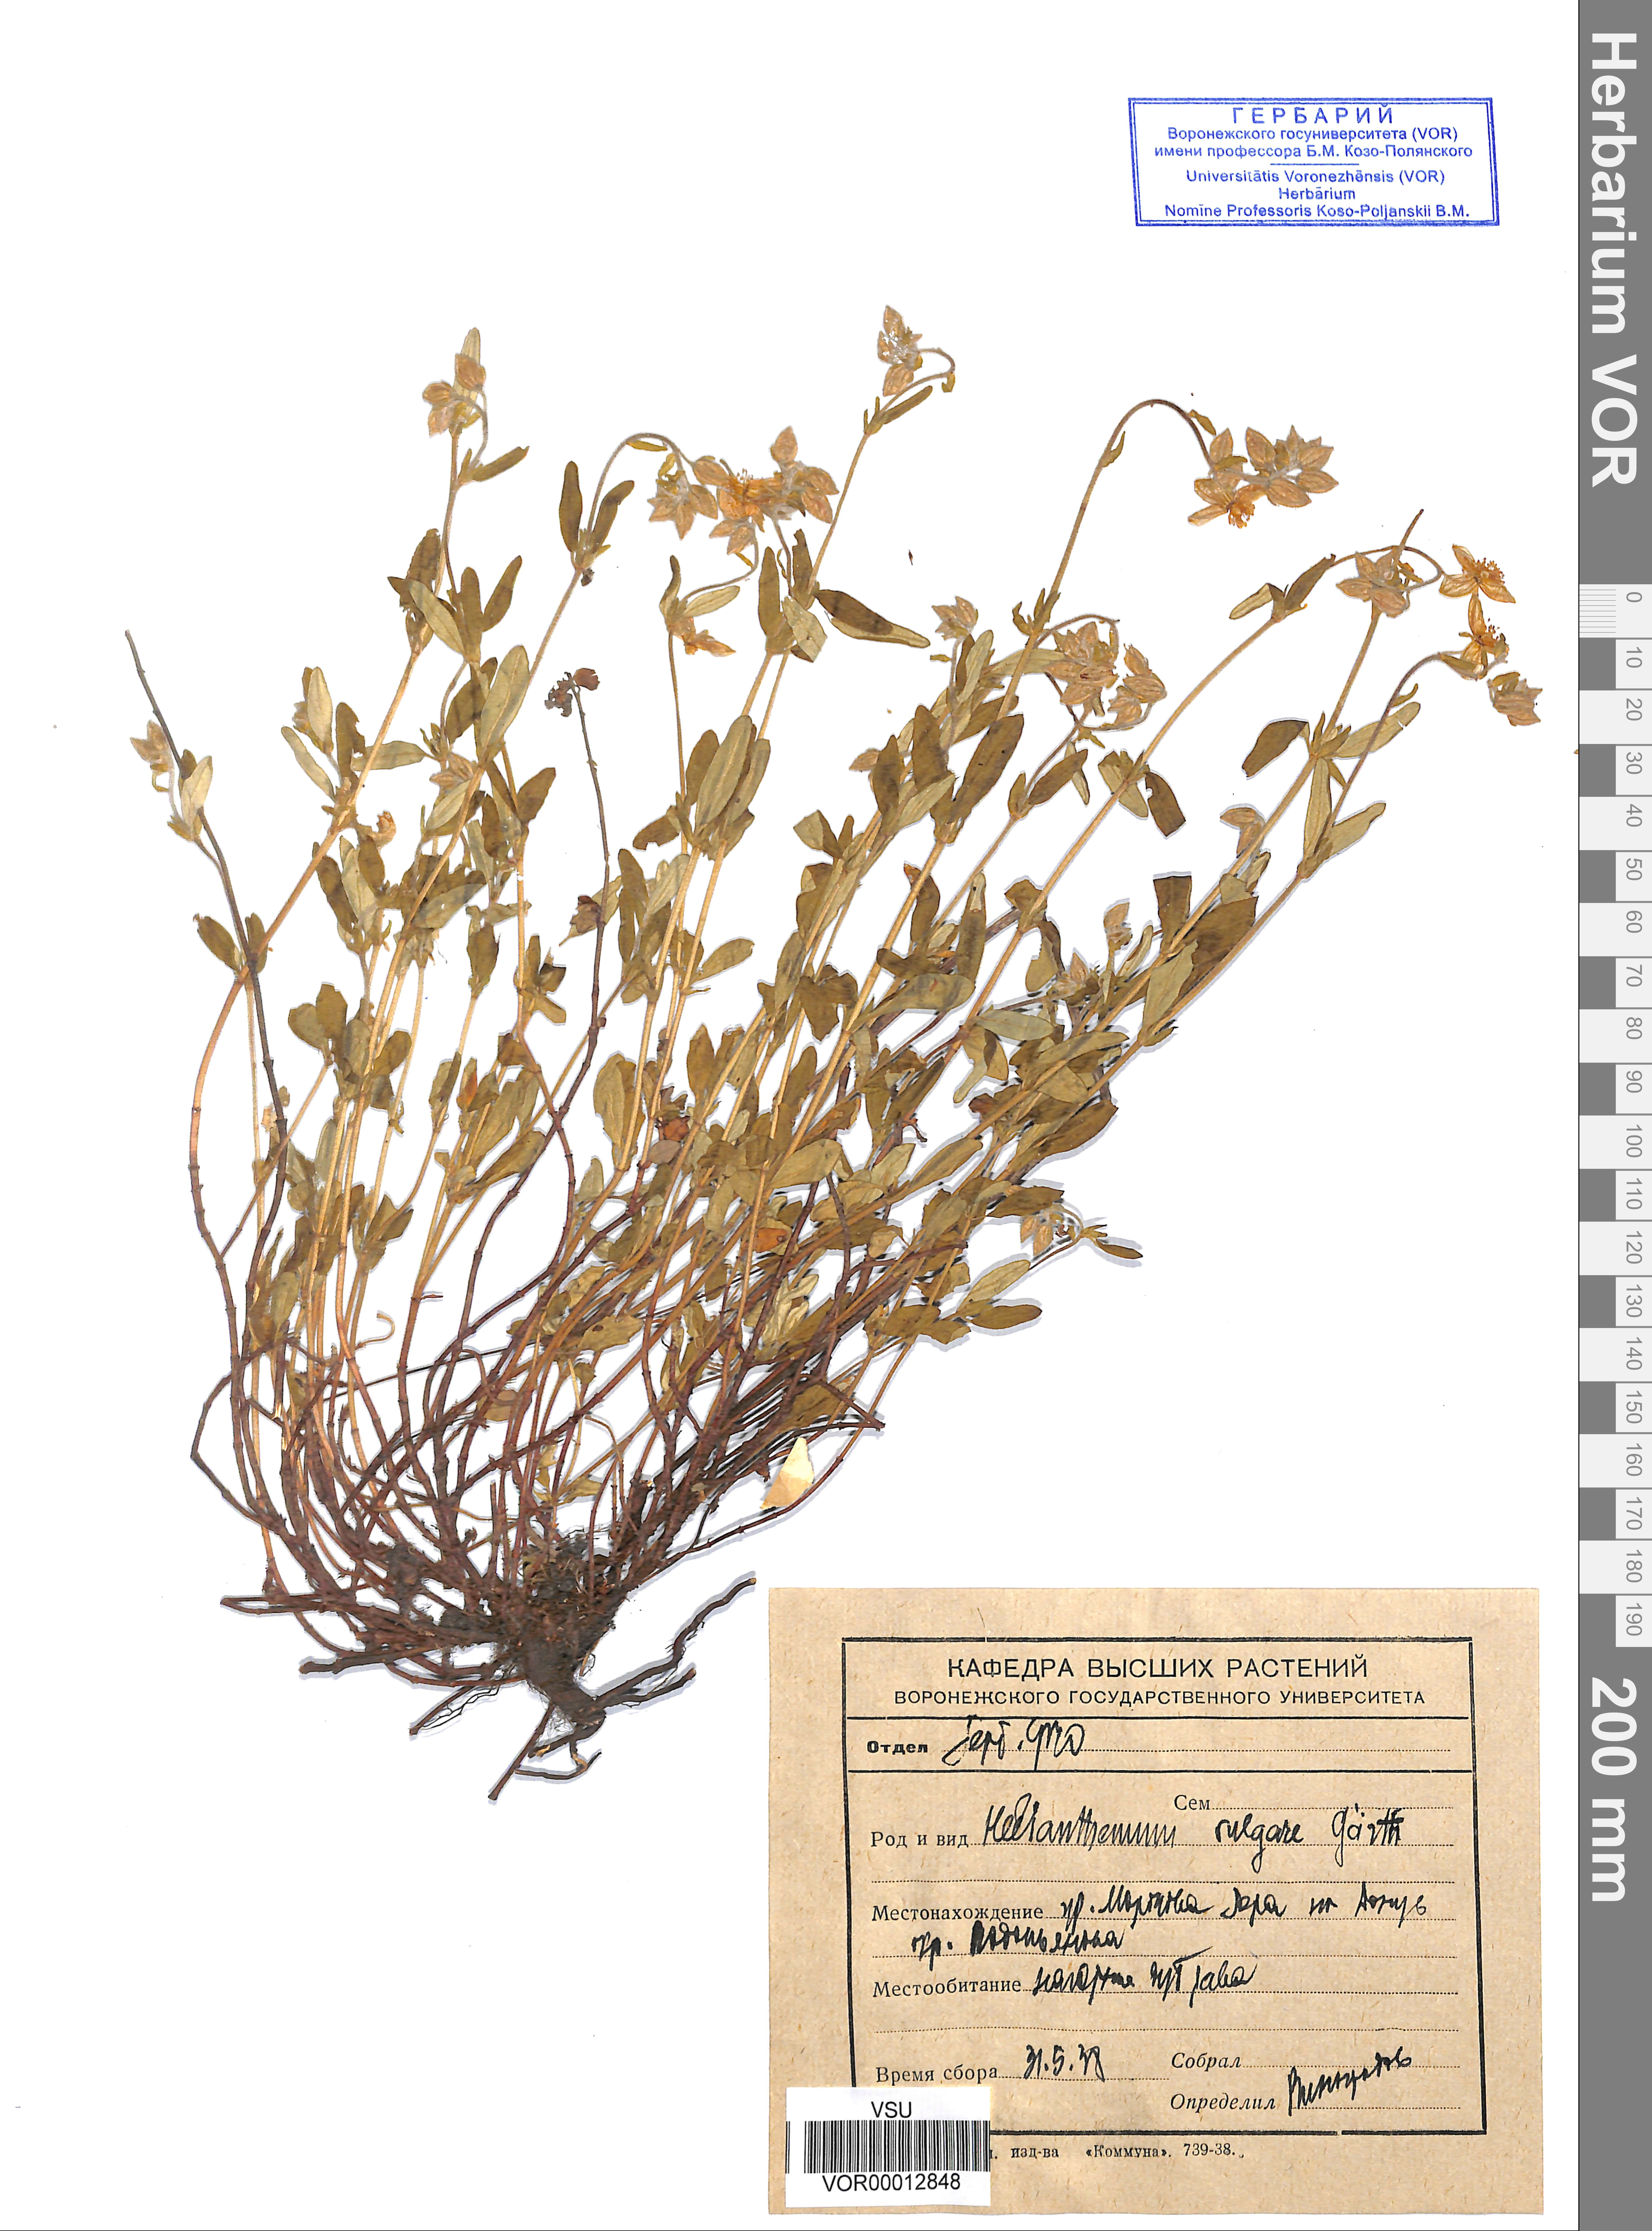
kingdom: Plantae
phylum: Tracheophyta
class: Magnoliopsida
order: Malvales
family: Cistaceae
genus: Helianthemum
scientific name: Helianthemum nummularium
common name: Common rock-rose
